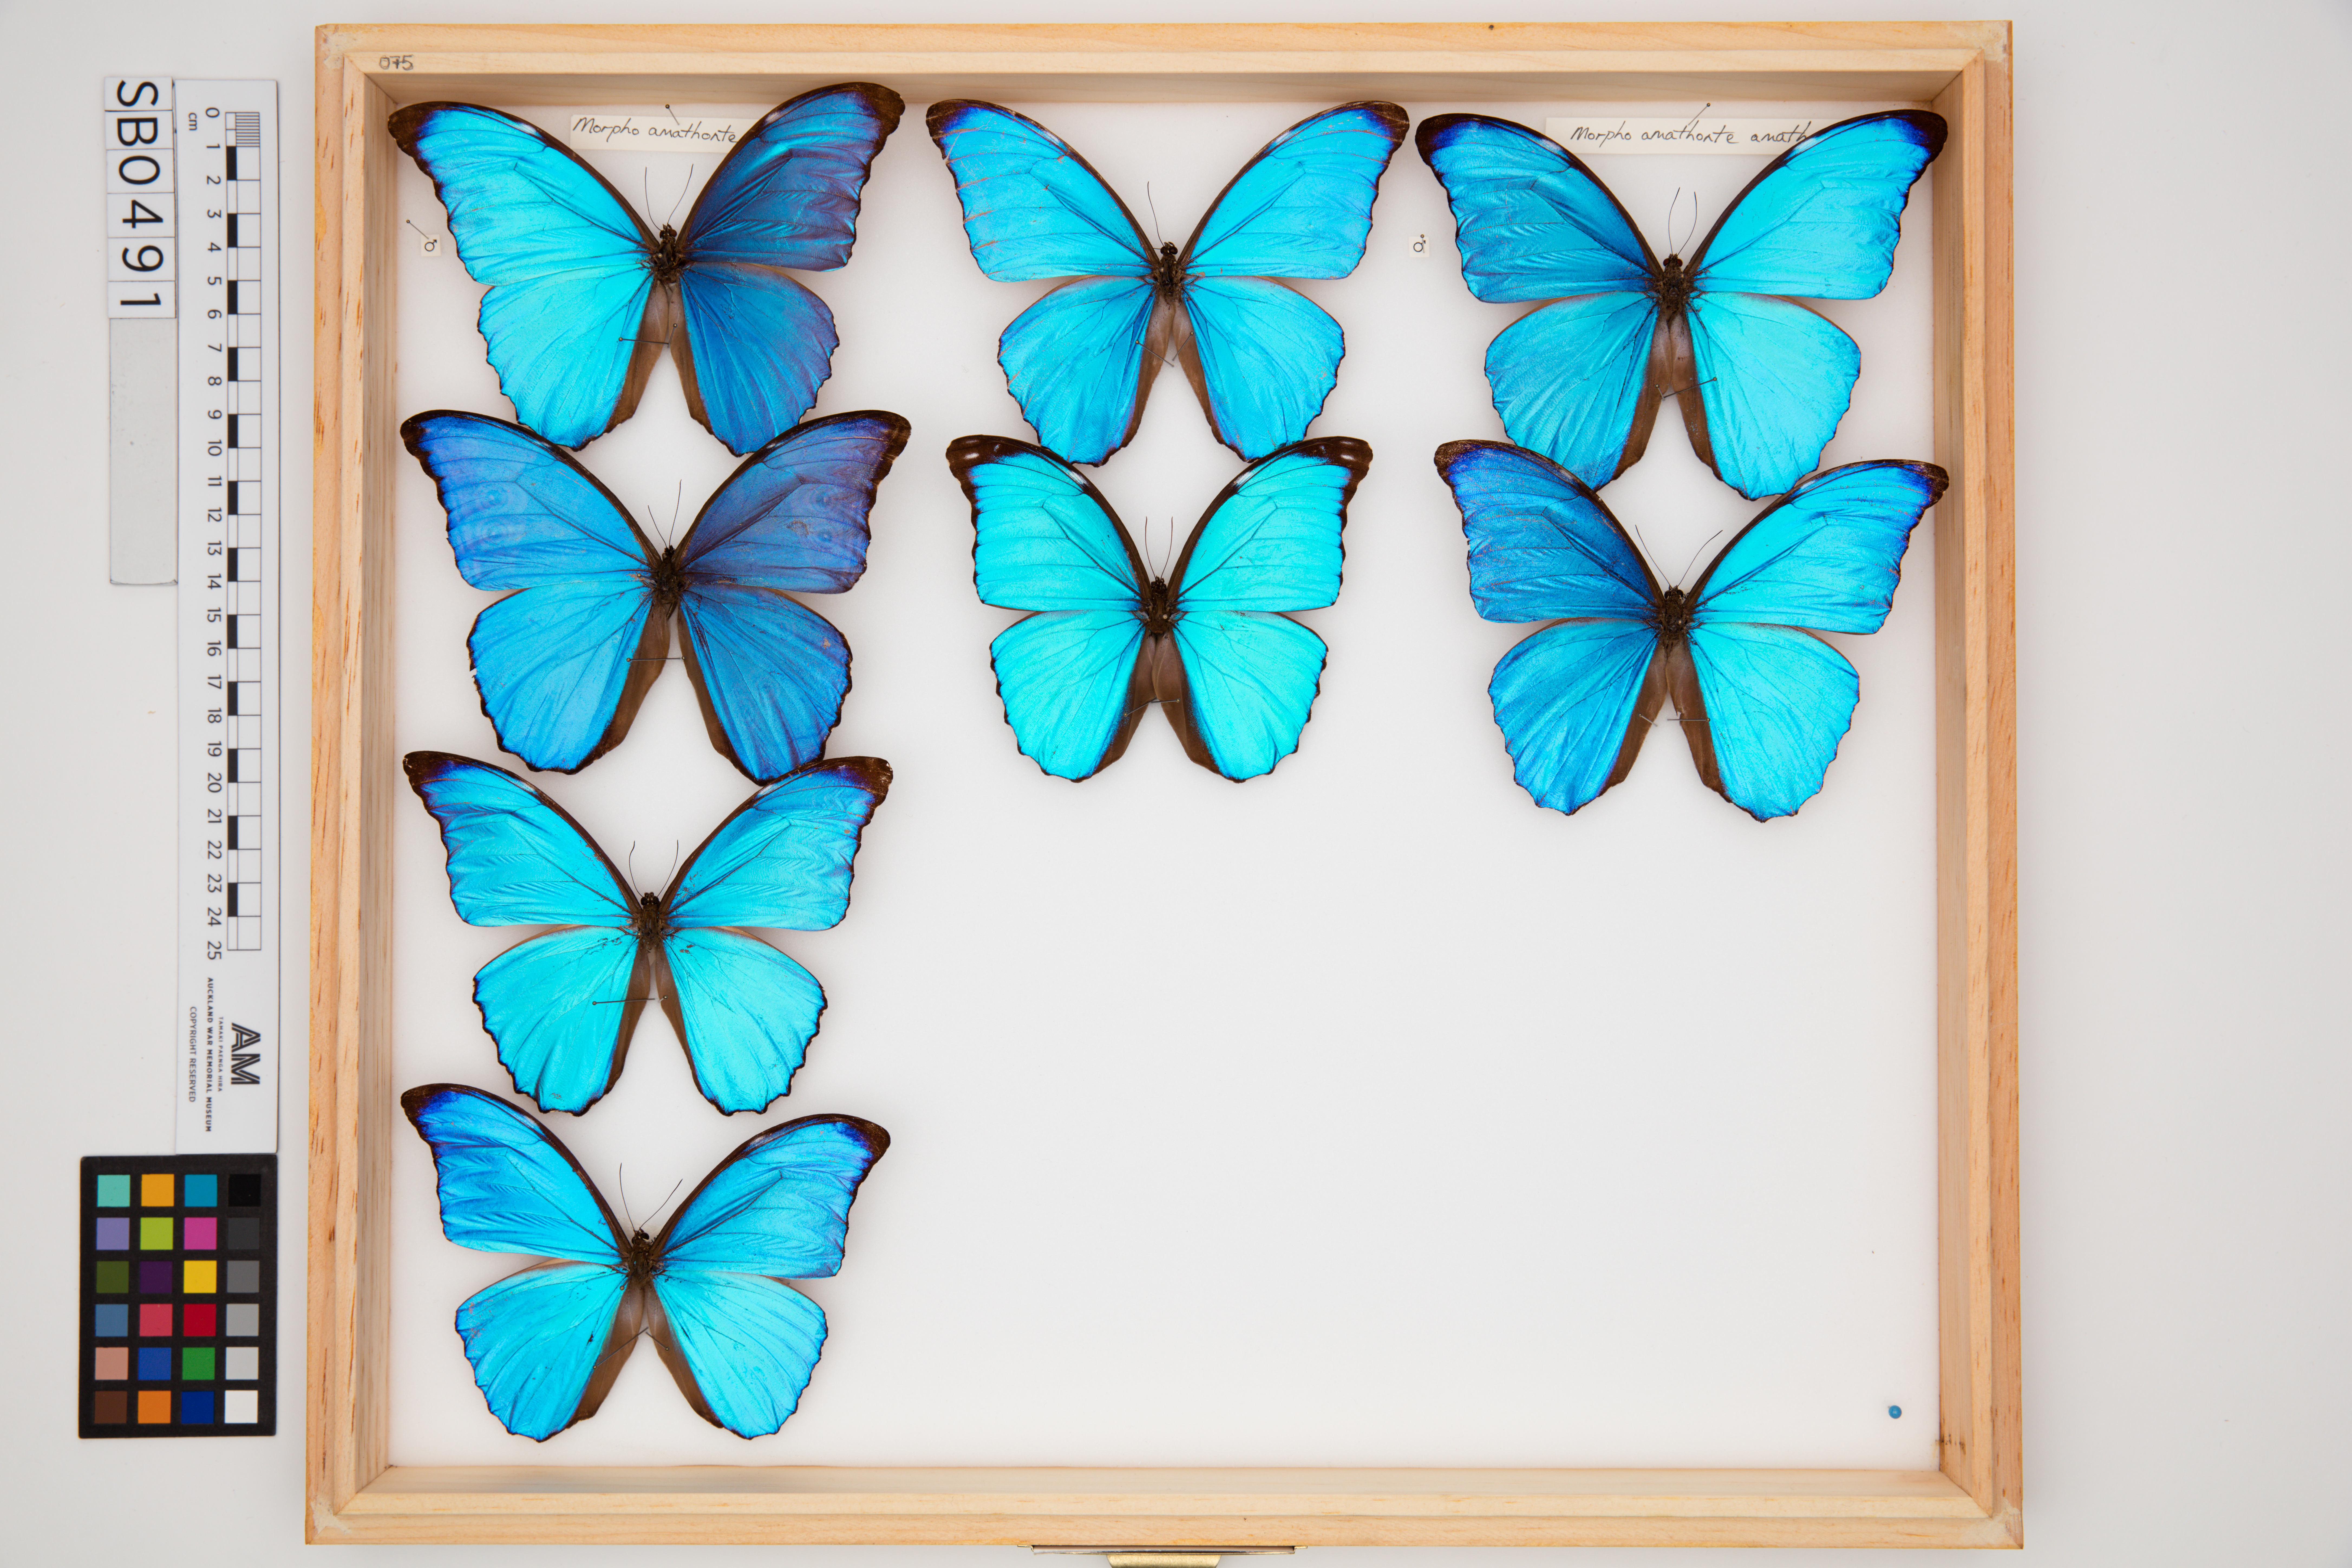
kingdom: Animalia
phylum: Arthropoda
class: Insecta
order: Lepidoptera
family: Nymphalidae
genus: Morpho
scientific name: Morpho godartii
